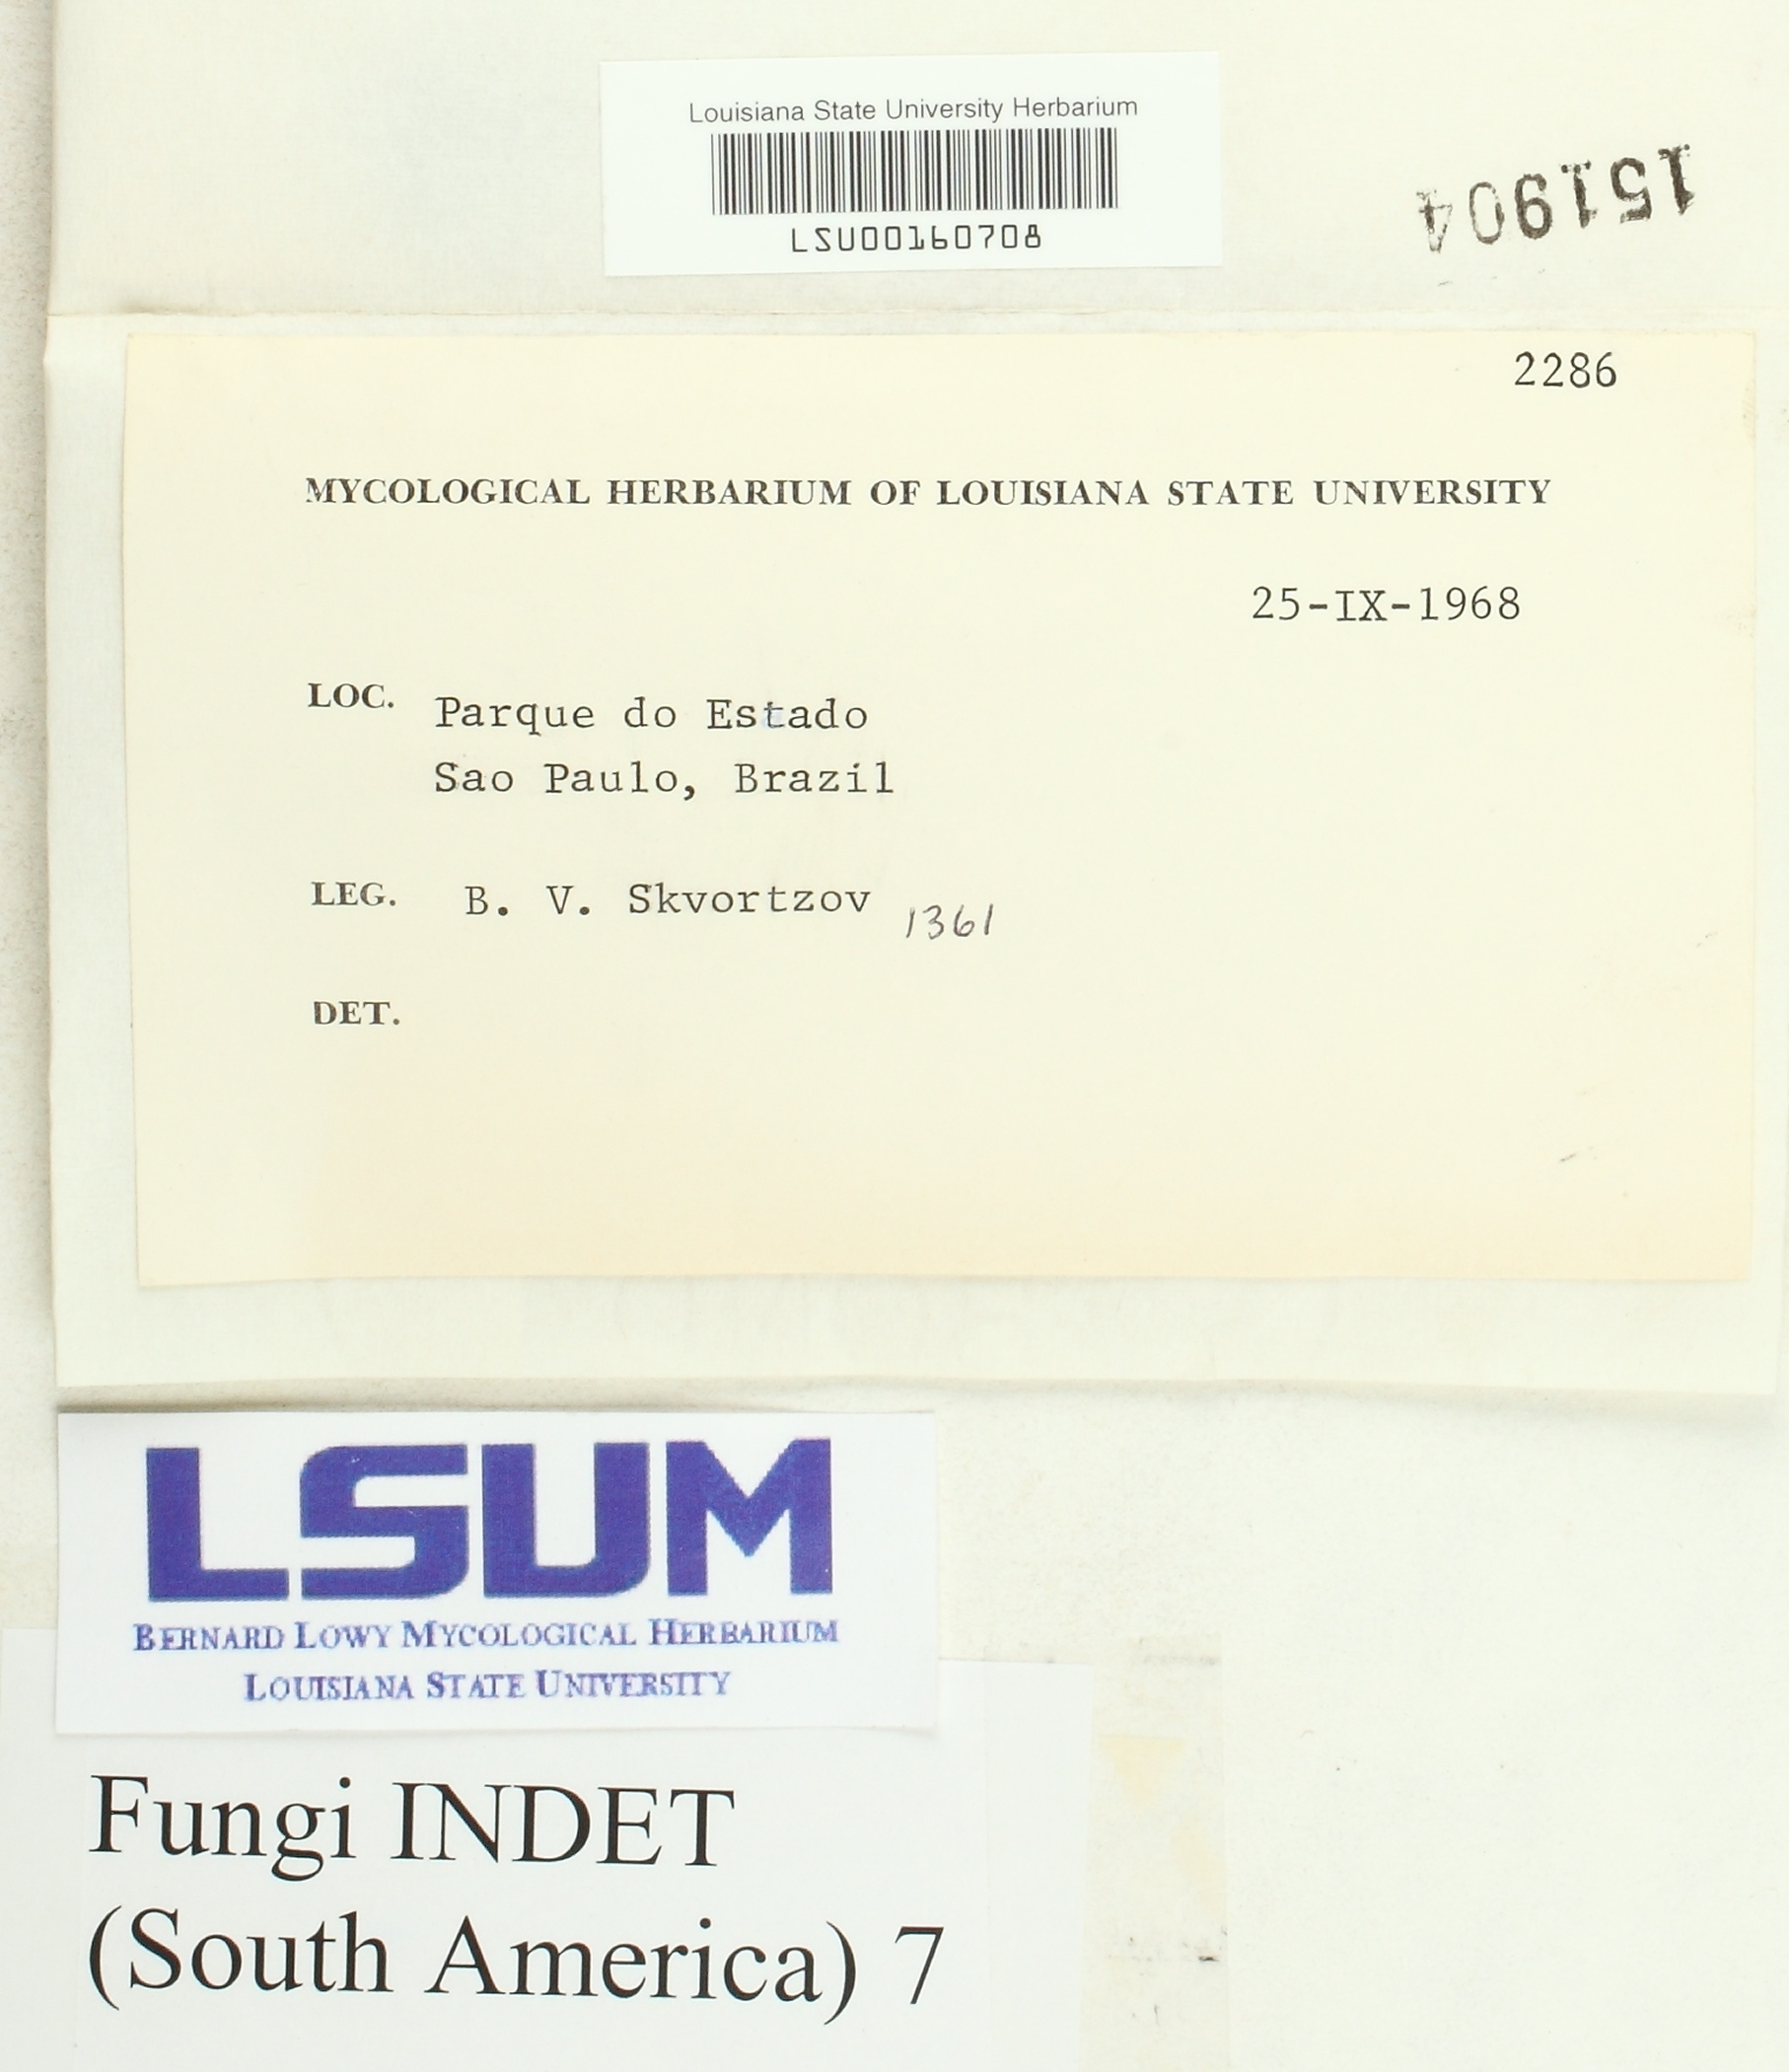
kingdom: Fungi
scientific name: Fungi
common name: Fungi
